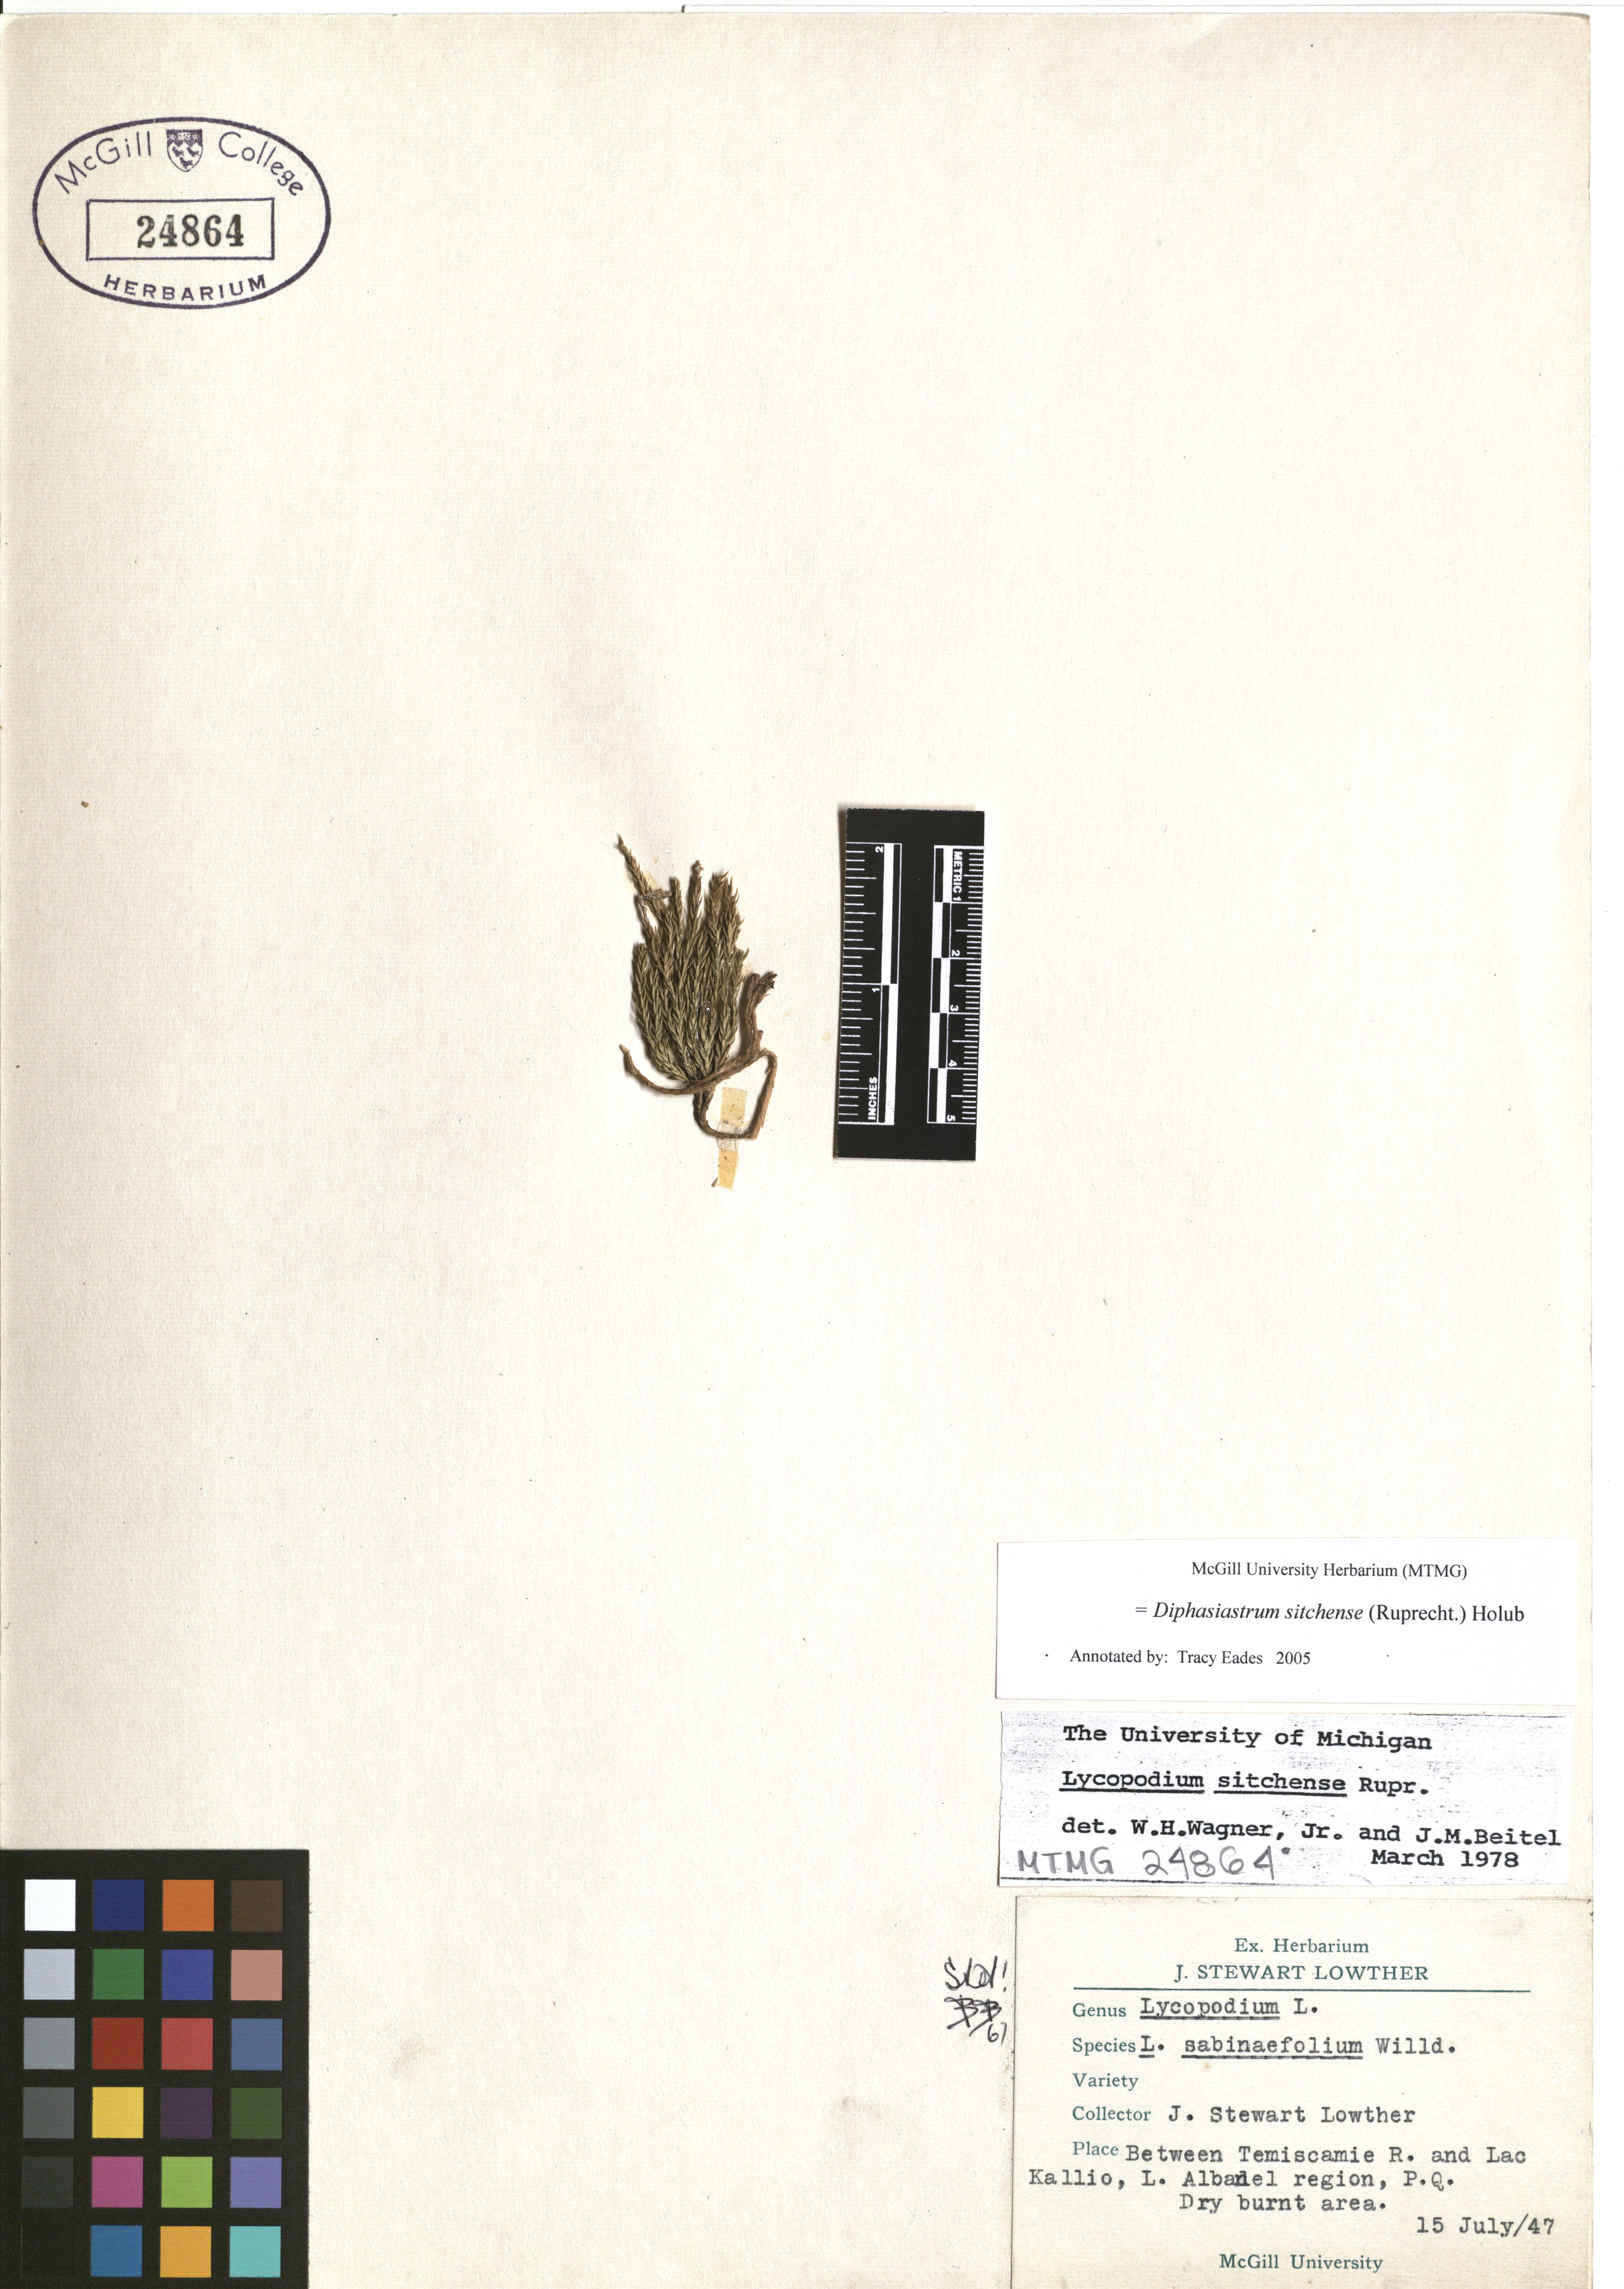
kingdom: Plantae
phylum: Tracheophyta
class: Lycopodiopsida
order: Lycopodiales
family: Lycopodiaceae
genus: Diphasiastrum
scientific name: Diphasiastrum sitchense
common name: Alaska clubmoss
